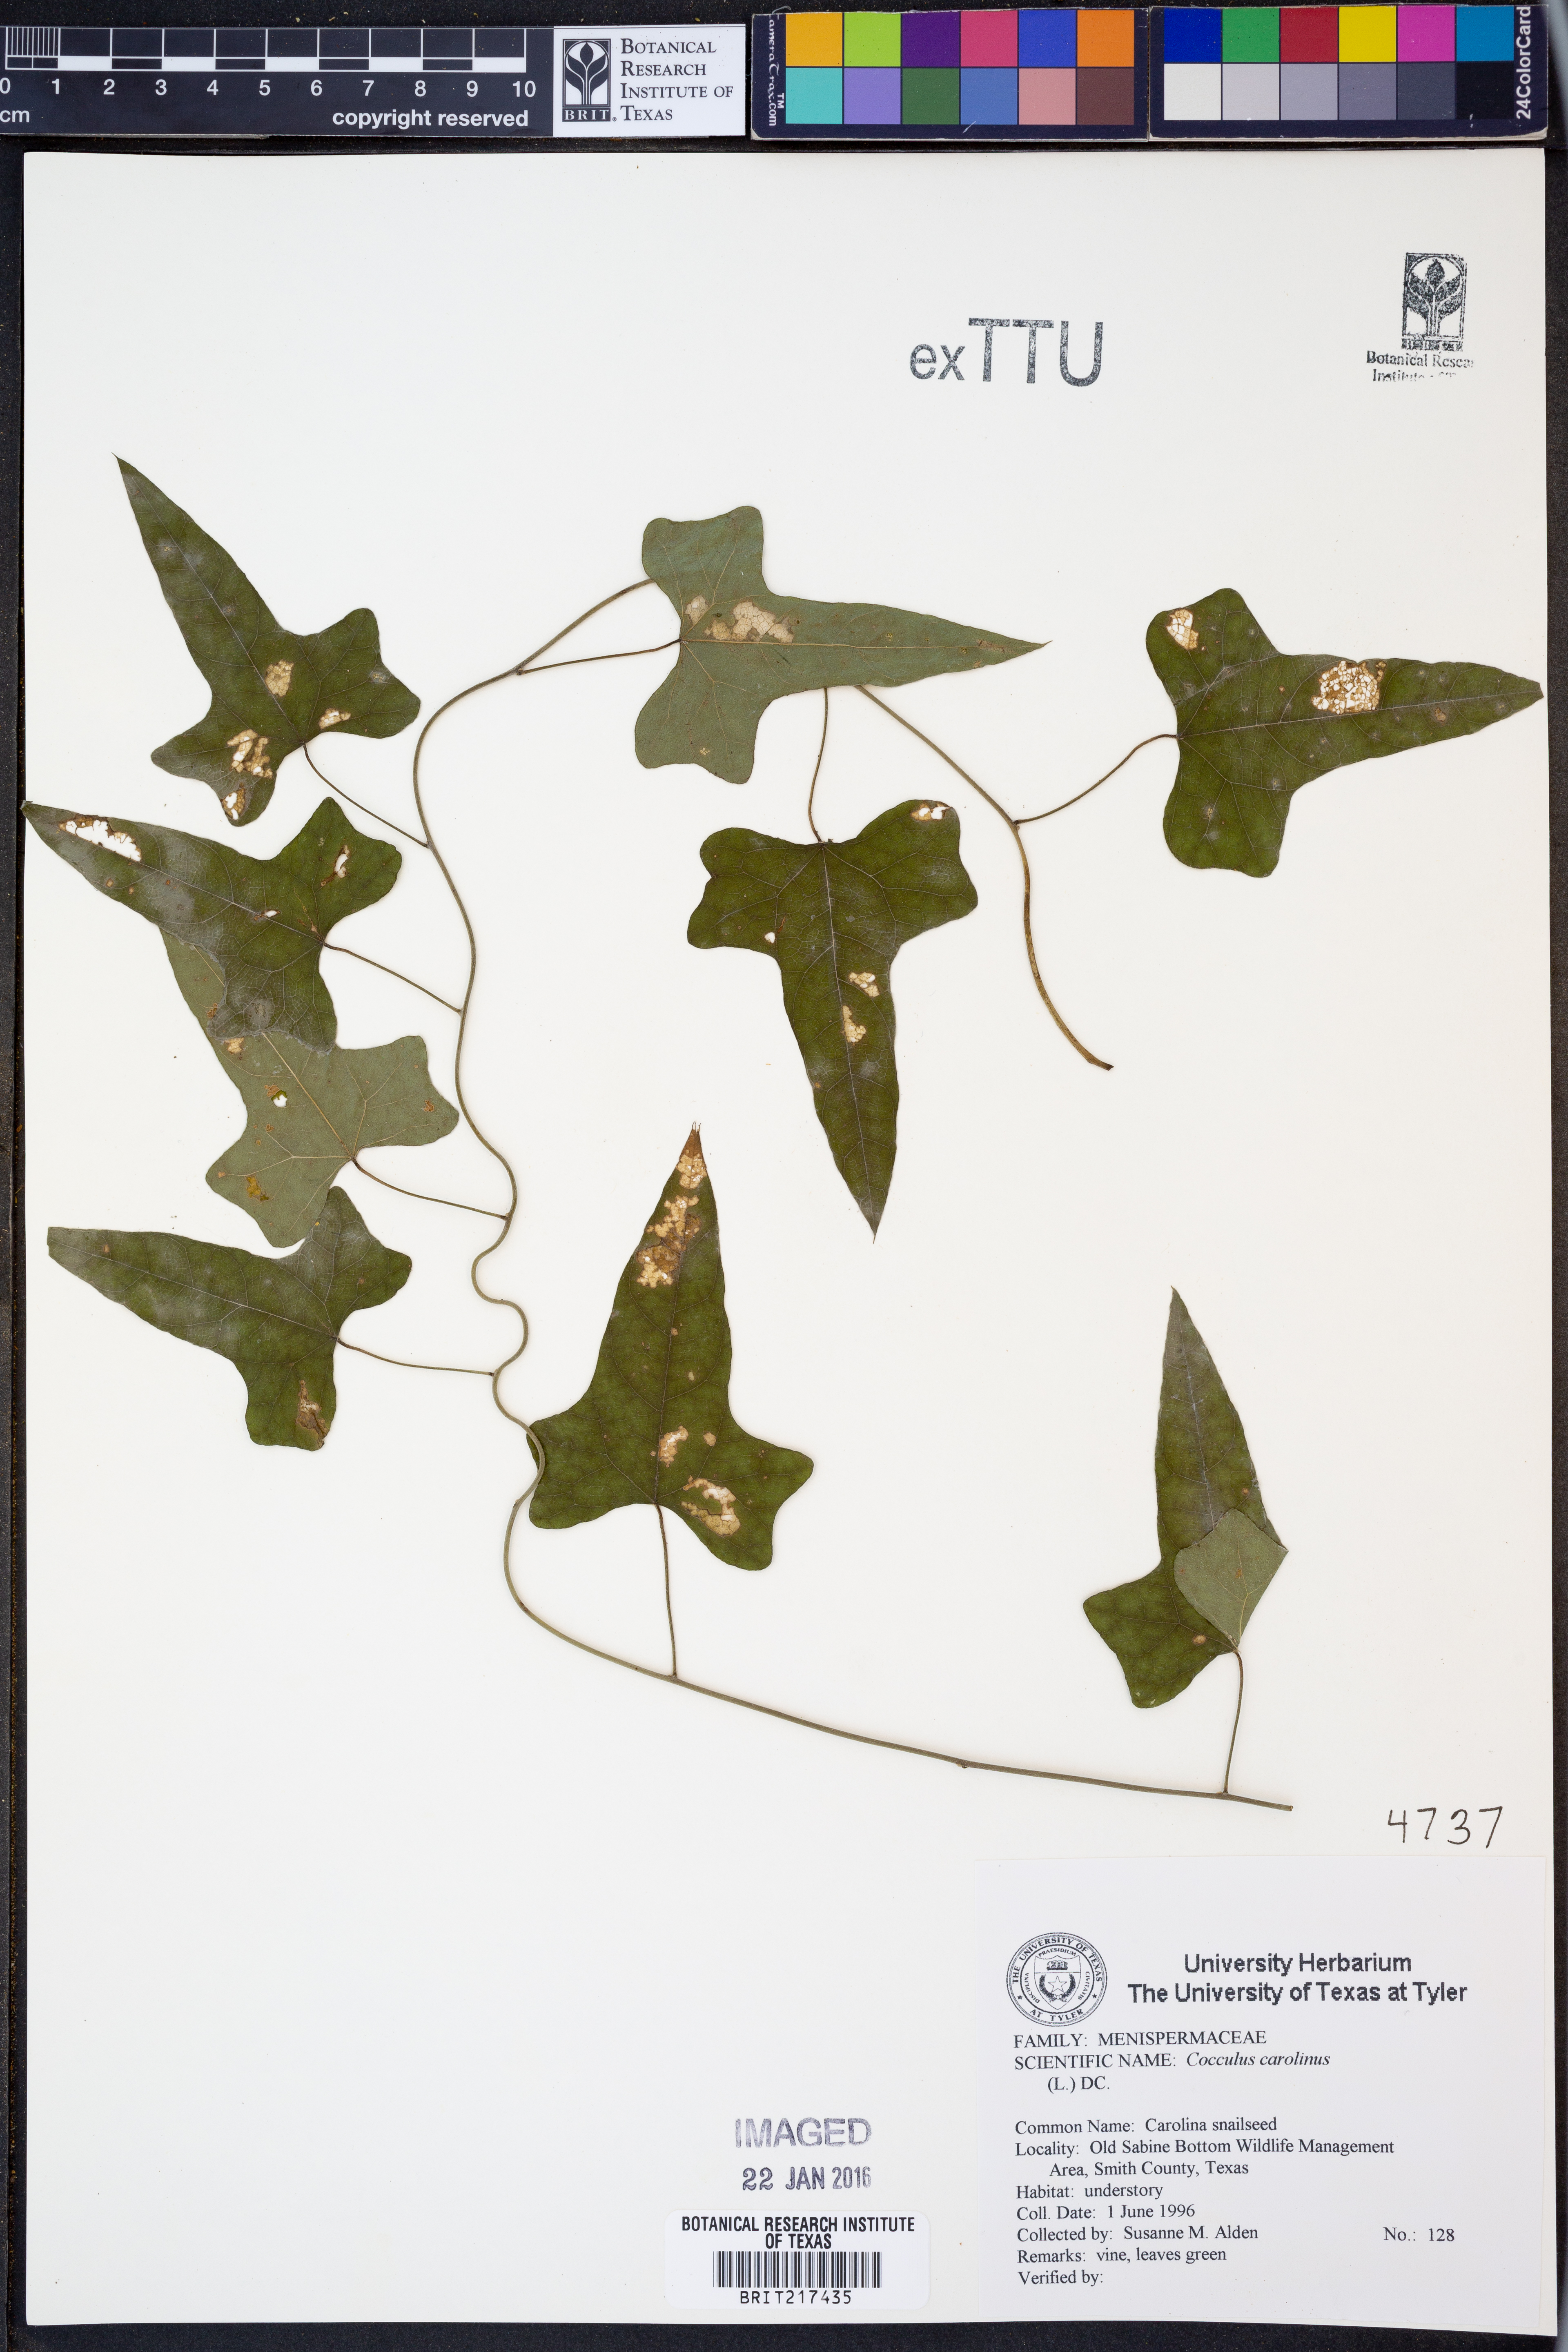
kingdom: Plantae
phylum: Tracheophyta
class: Magnoliopsida
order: Ranunculales
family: Menispermaceae
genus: Cocculus
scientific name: Cocculus carolinus
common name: Carolina moonseed
